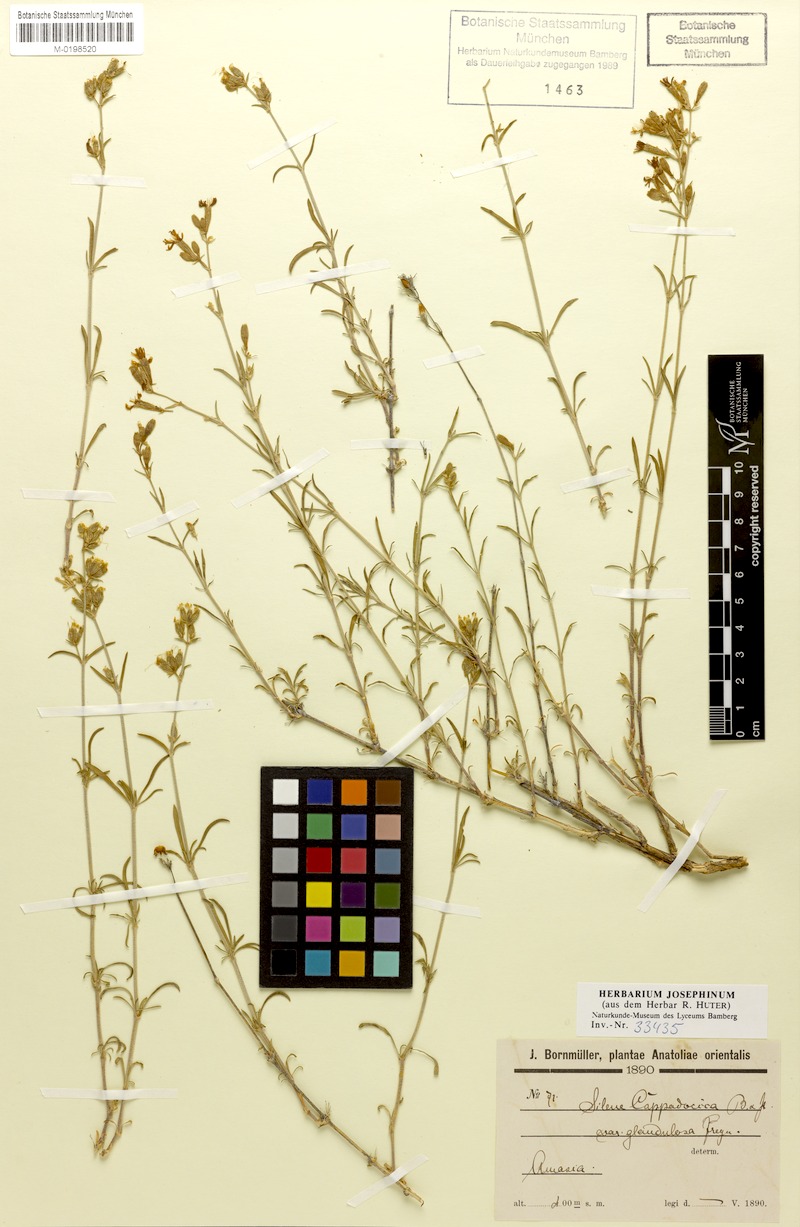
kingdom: Plantae
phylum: Tracheophyta
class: Magnoliopsida
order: Caryophyllales
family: Caryophyllaceae
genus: Silene
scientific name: Silene cappadocica
